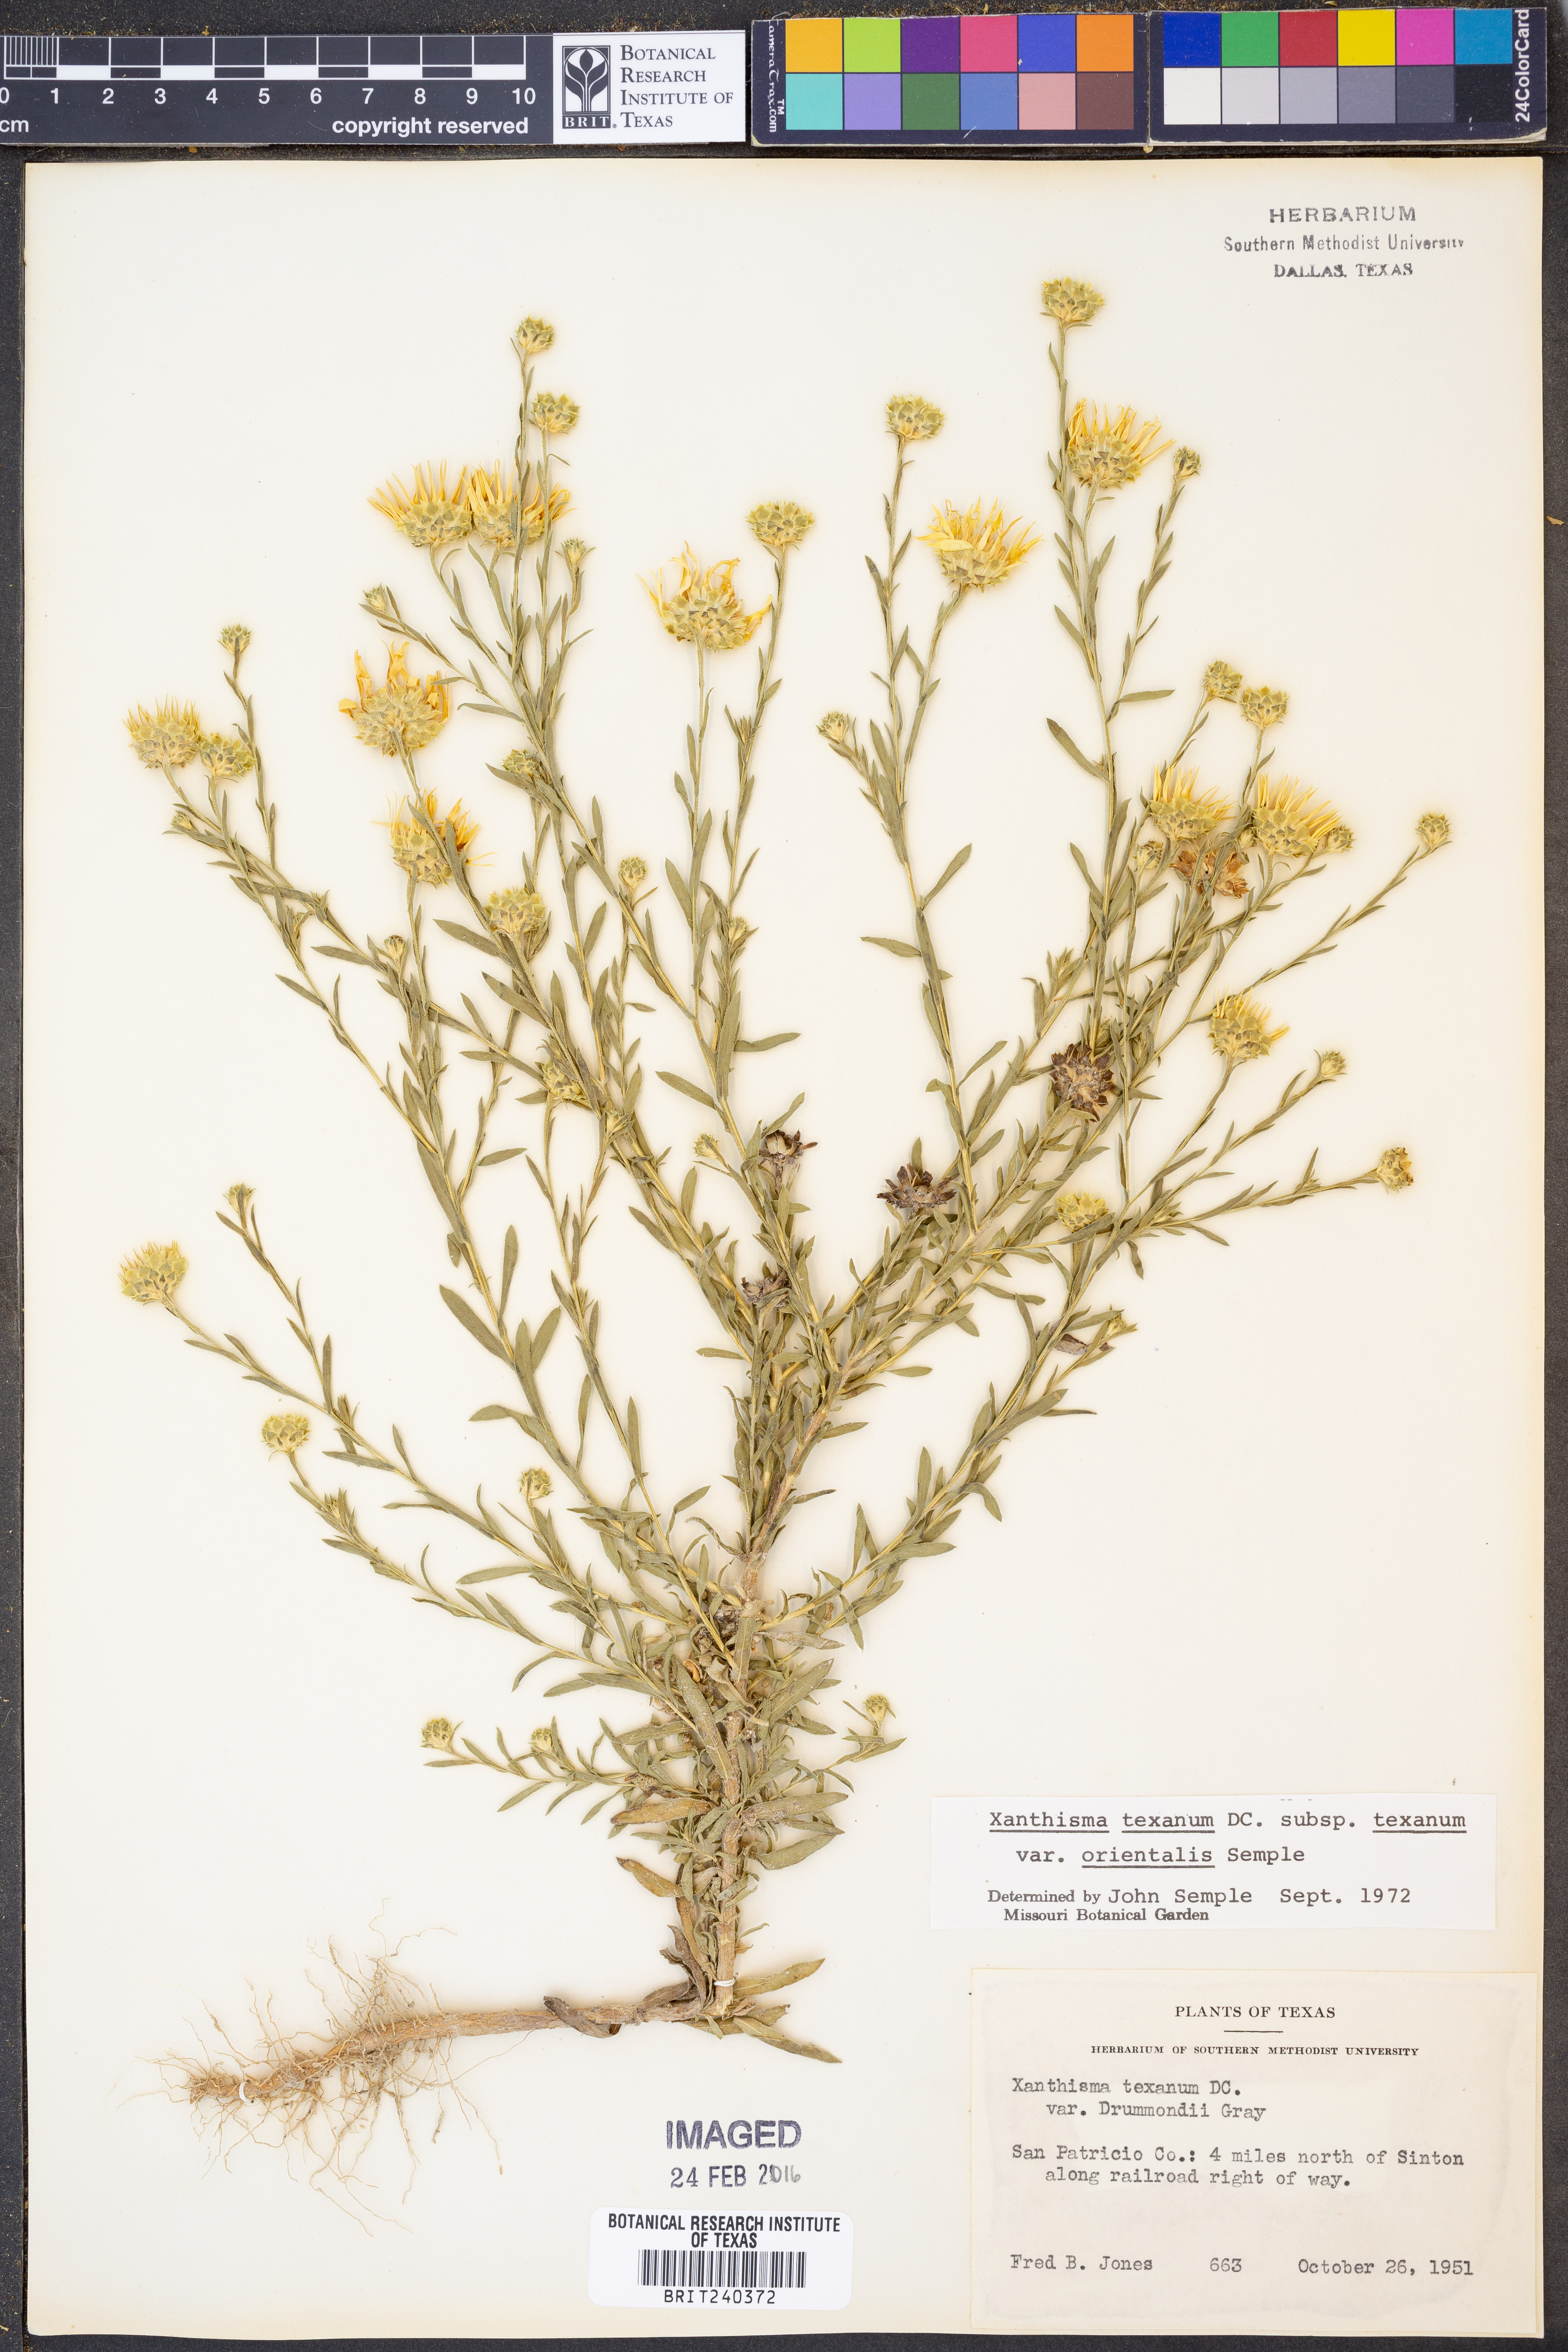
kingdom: Plantae
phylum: Tracheophyta
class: Magnoliopsida
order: Asterales
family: Asteraceae
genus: Xanthisma
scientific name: Xanthisma texanum
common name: Texas sleepy daisy
